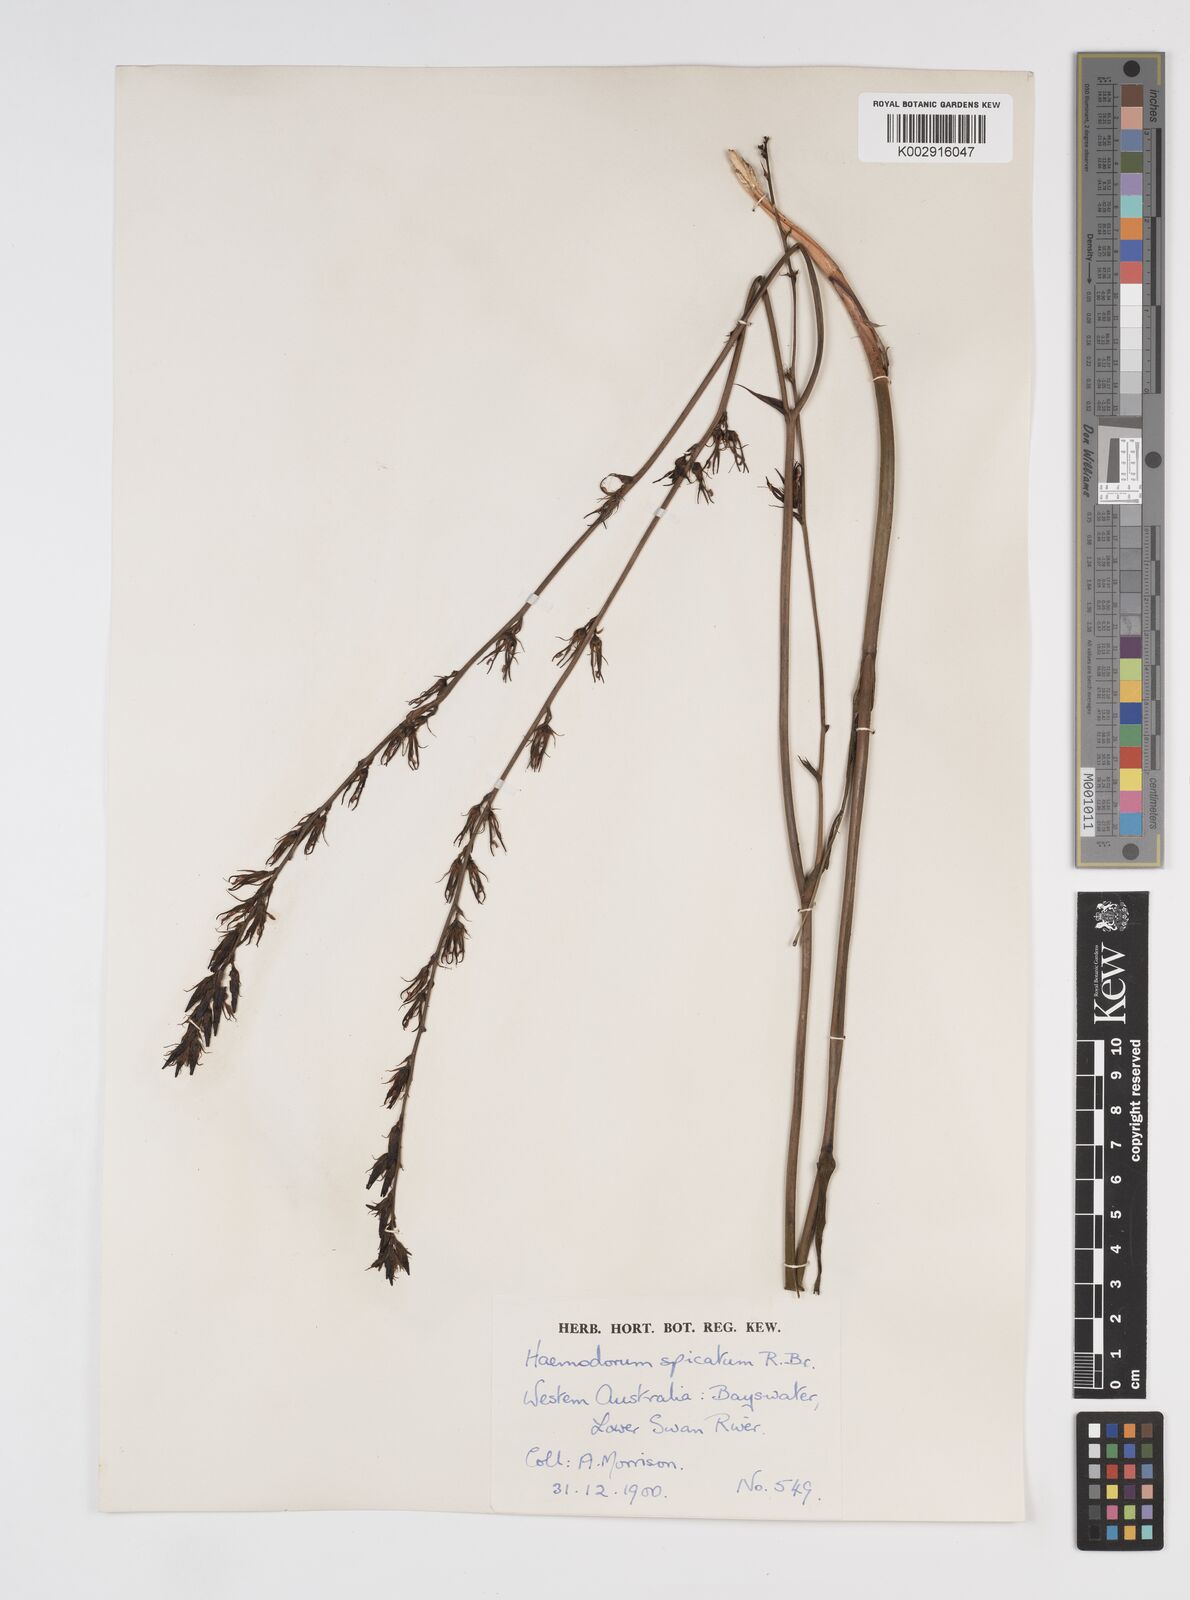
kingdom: Plantae
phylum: Tracheophyta
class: Liliopsida
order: Commelinales
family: Haemodoraceae
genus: Haemodorum
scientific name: Haemodorum spicatum
